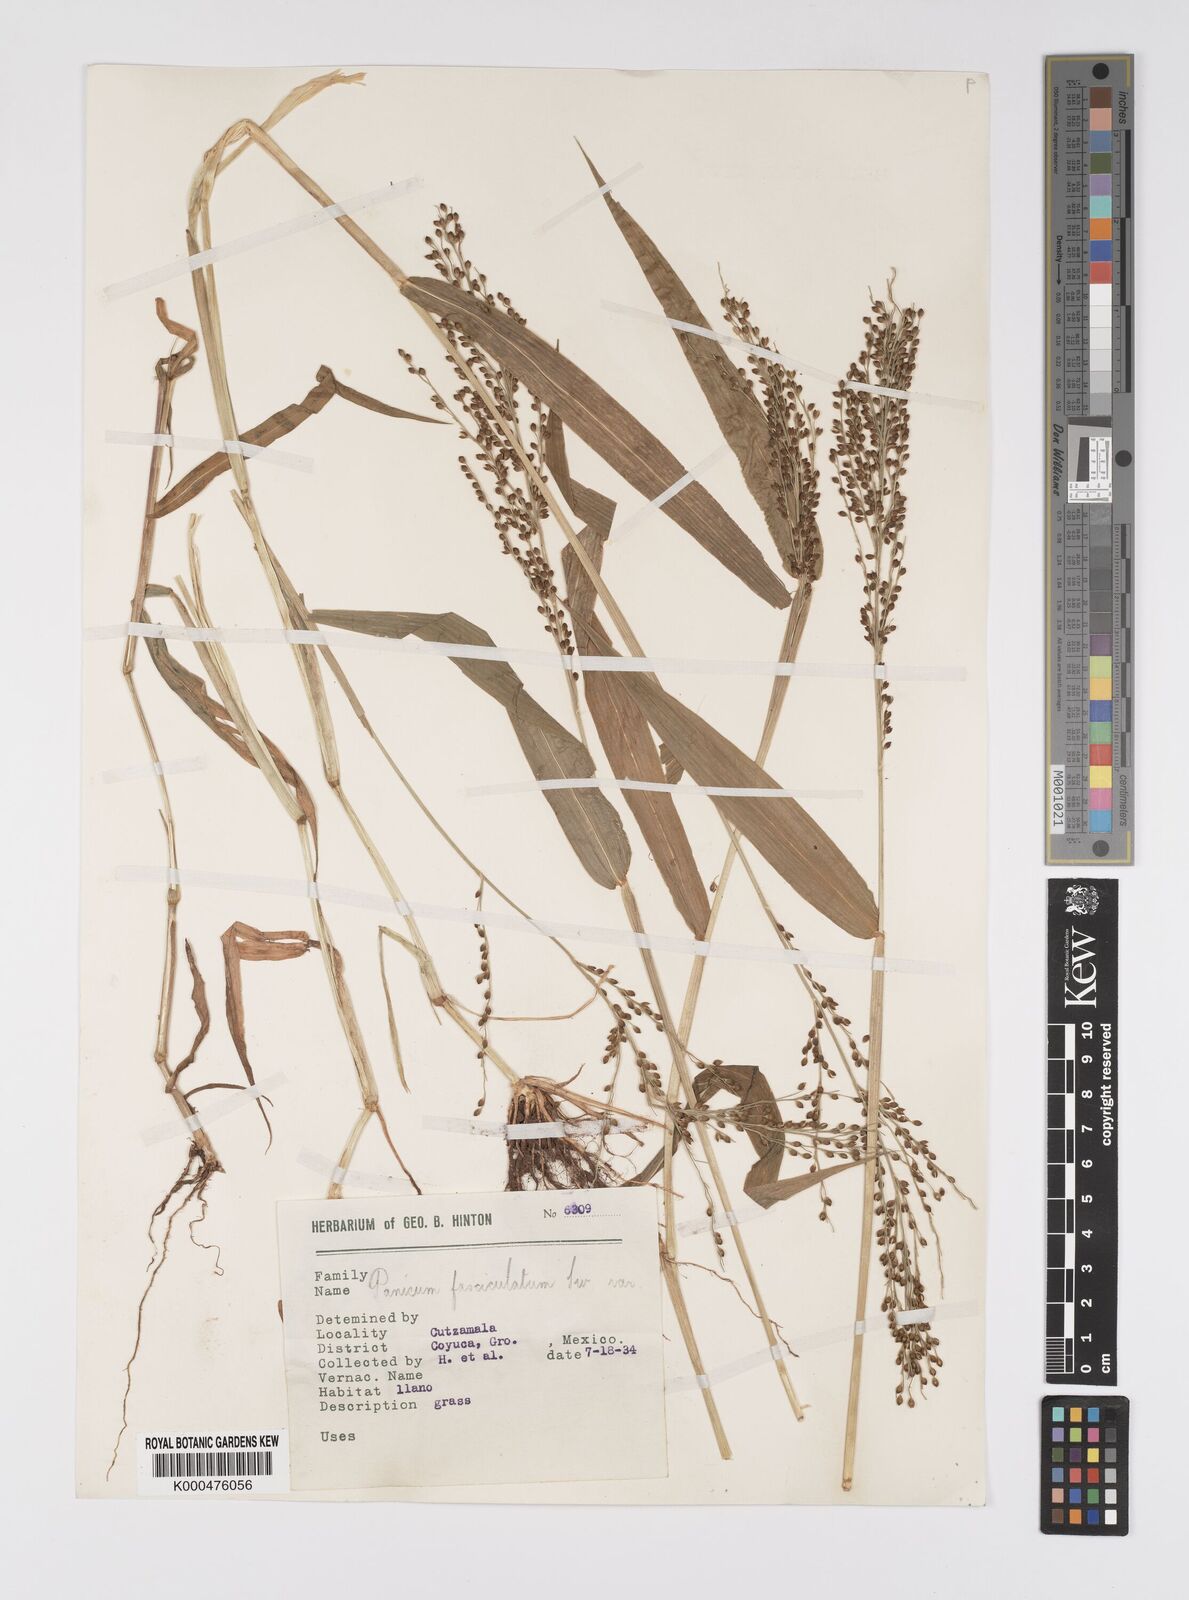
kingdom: Plantae
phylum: Tracheophyta
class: Liliopsida
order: Poales
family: Poaceae
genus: Urochloa
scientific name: Urochloa fusca
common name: Browntop signal grass
